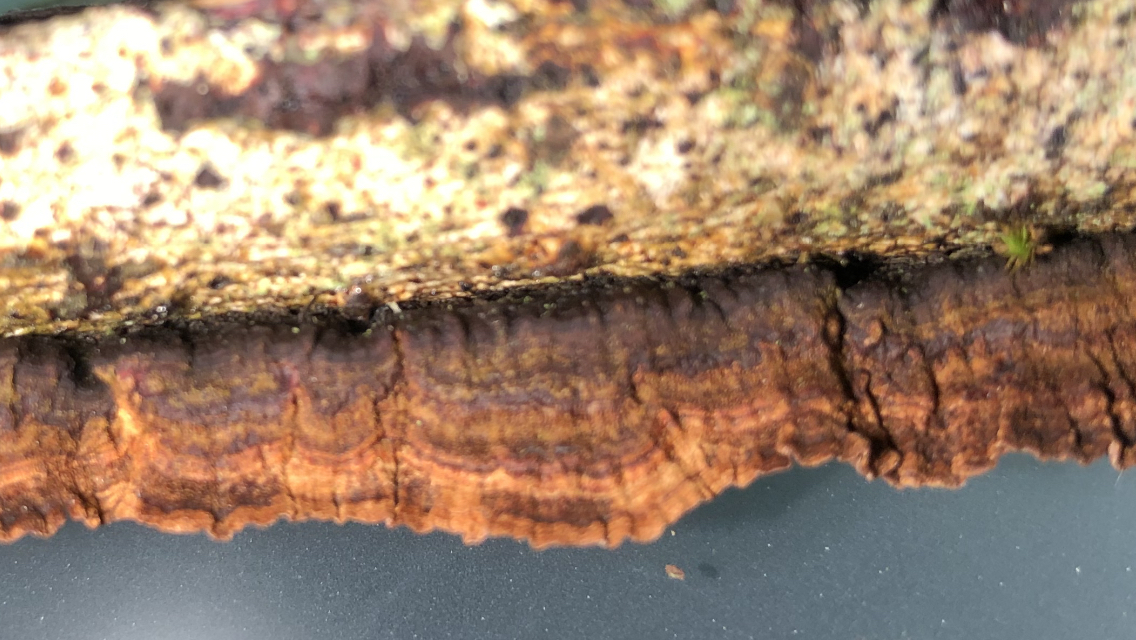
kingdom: Fungi
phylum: Basidiomycota
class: Agaricomycetes
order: Hymenochaetales
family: Hymenochaetaceae
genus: Hydnoporia
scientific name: Hydnoporia tabacina
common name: tobaksbrun ruslædersvamp
